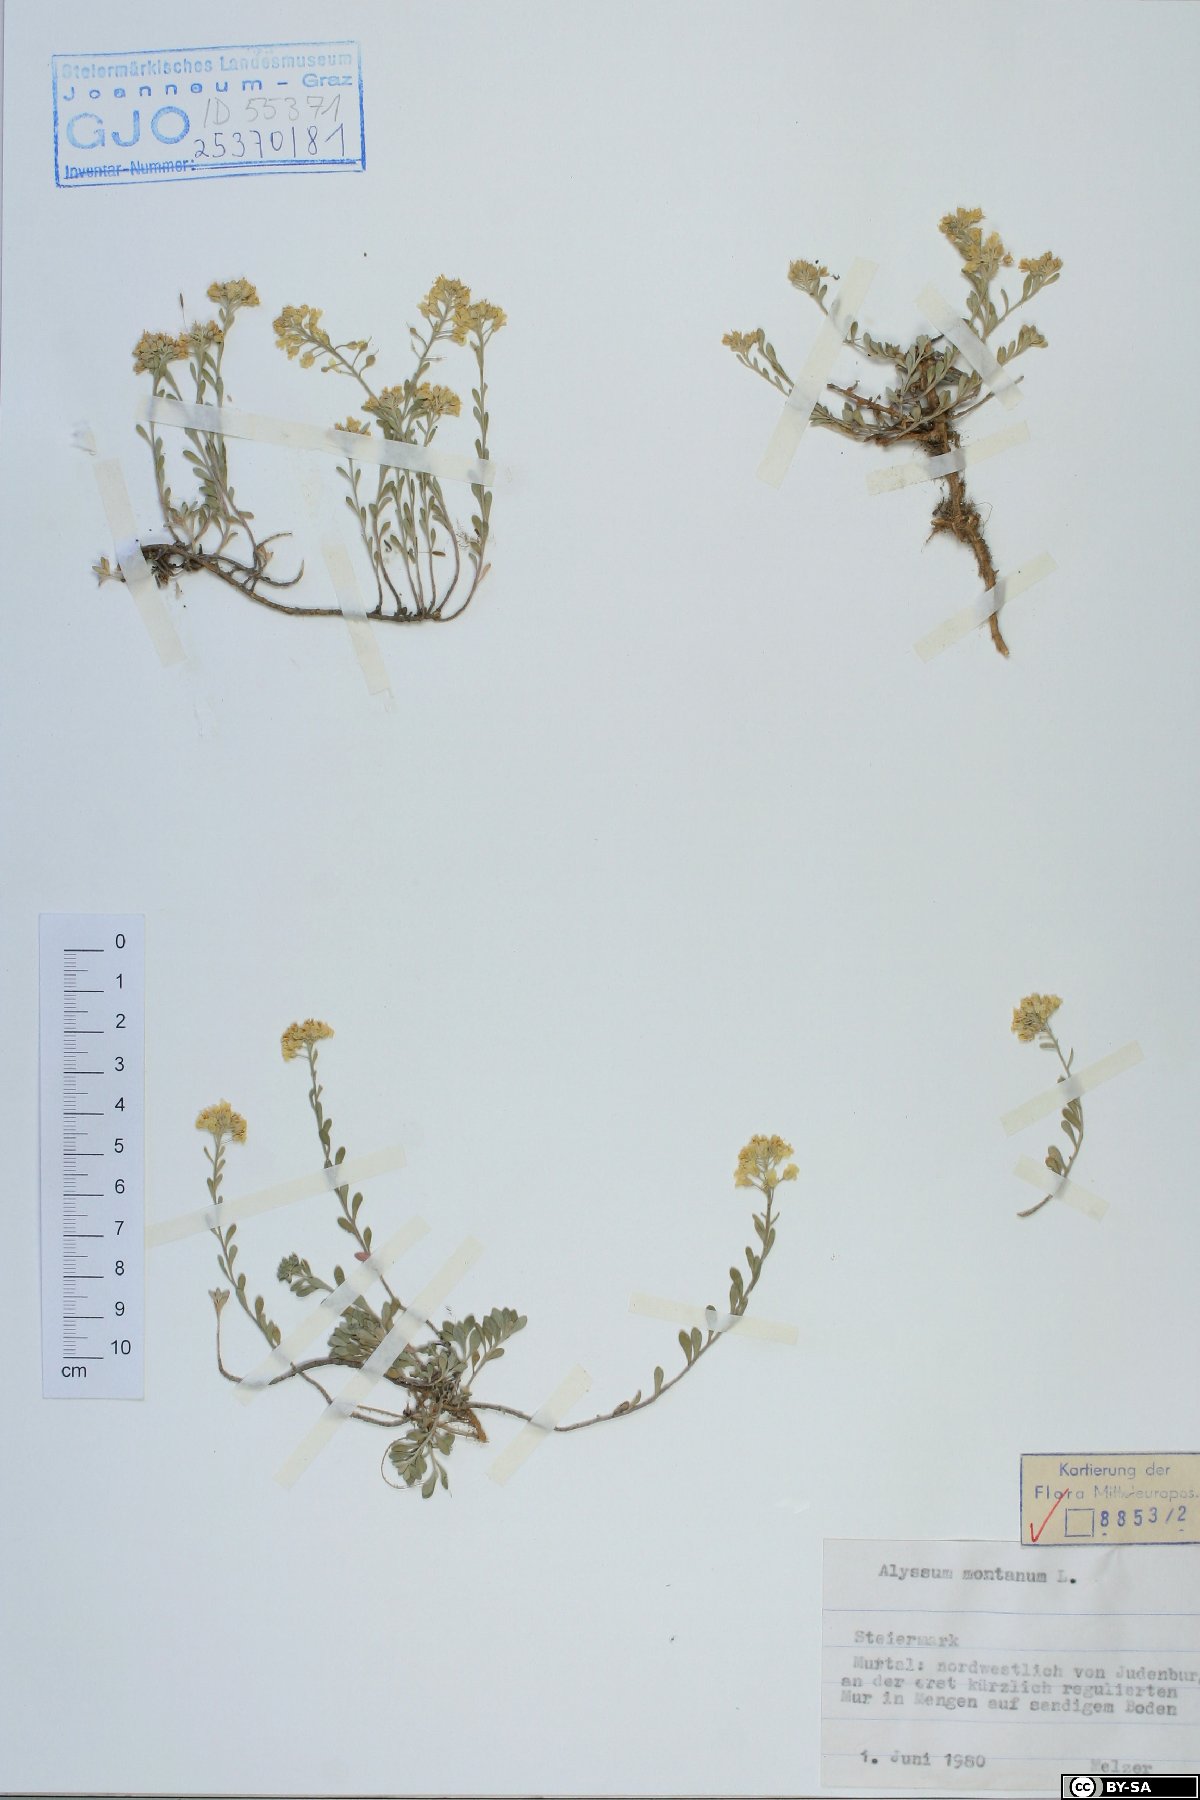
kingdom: Plantae
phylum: Tracheophyta
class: Magnoliopsida
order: Brassicales
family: Brassicaceae
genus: Alyssum
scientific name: Alyssum montanum
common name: Mountain alison
